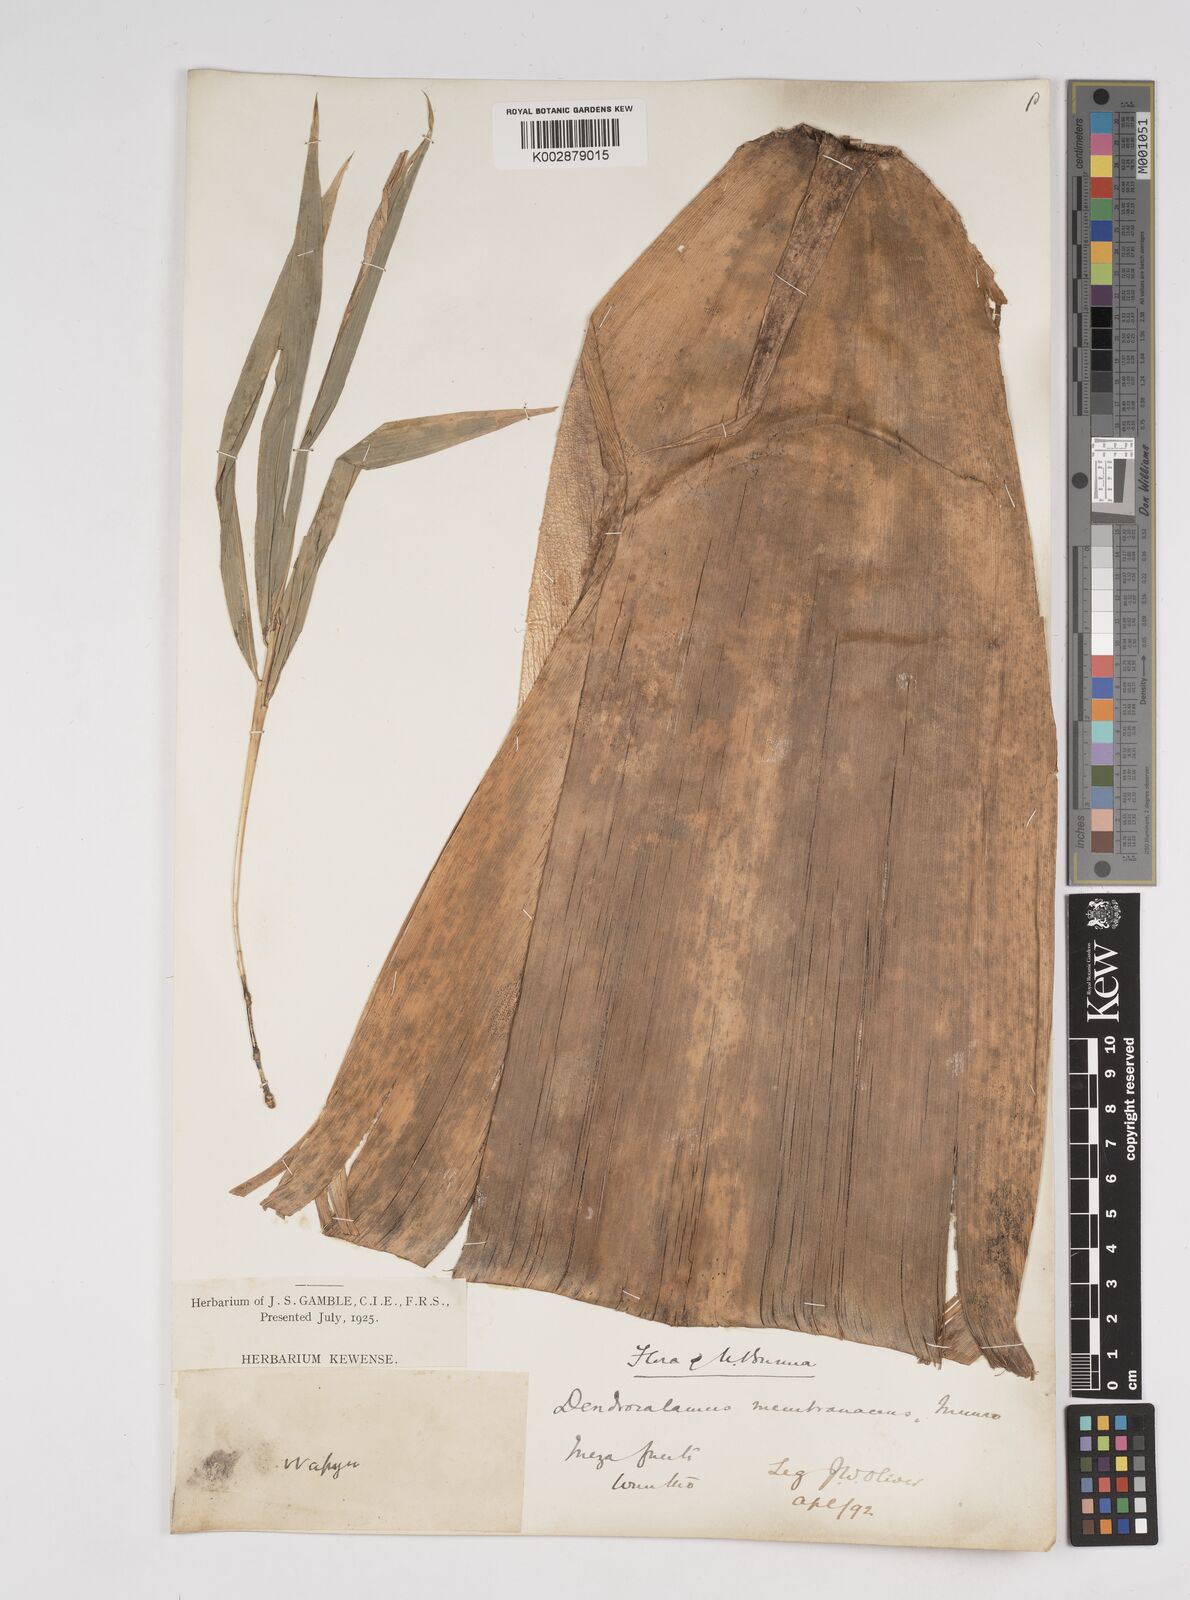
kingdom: Plantae
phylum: Tracheophyta
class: Liliopsida
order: Poales
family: Poaceae
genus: Dendrocalamus
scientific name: Dendrocalamus membranaceus
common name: White bamboo
